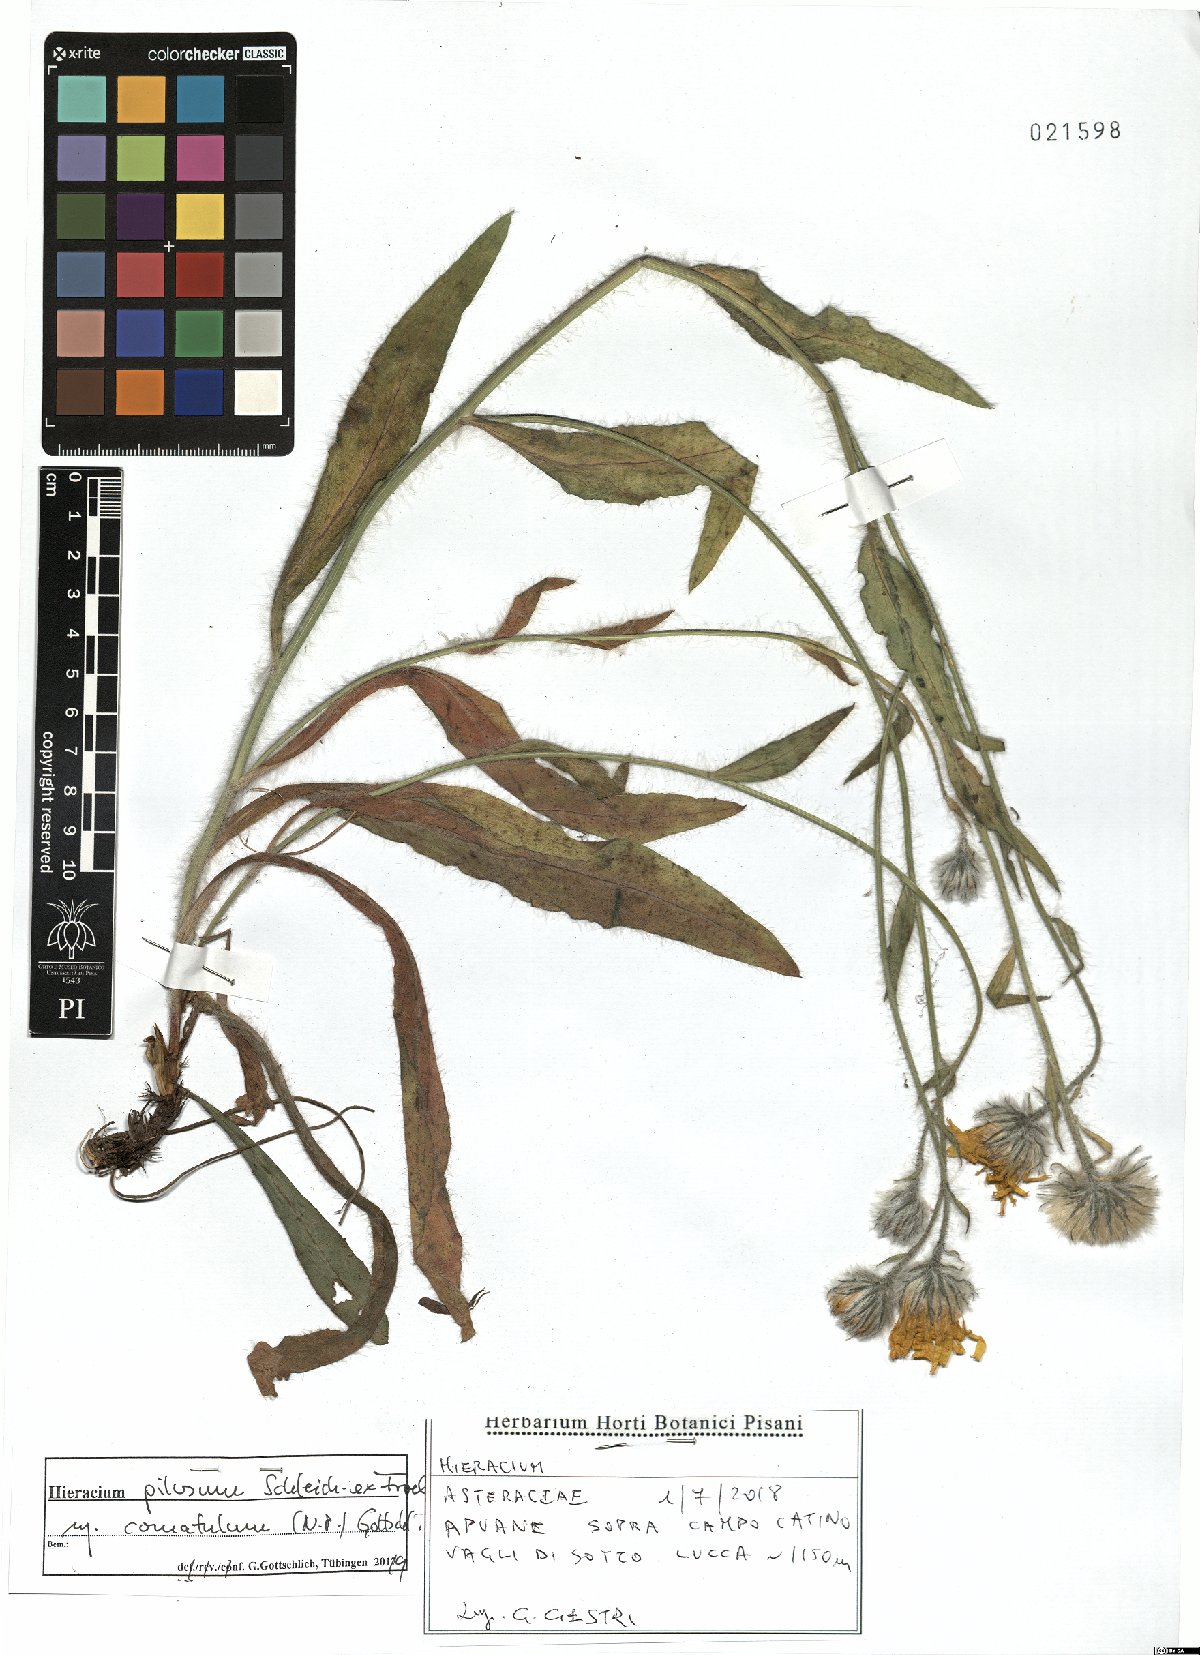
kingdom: Plantae
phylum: Tracheophyta
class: Magnoliopsida
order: Asterales
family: Asteraceae
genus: Hieracium
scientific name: Hieracium pilosum
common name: Fimbriate-pitted hawkweed
